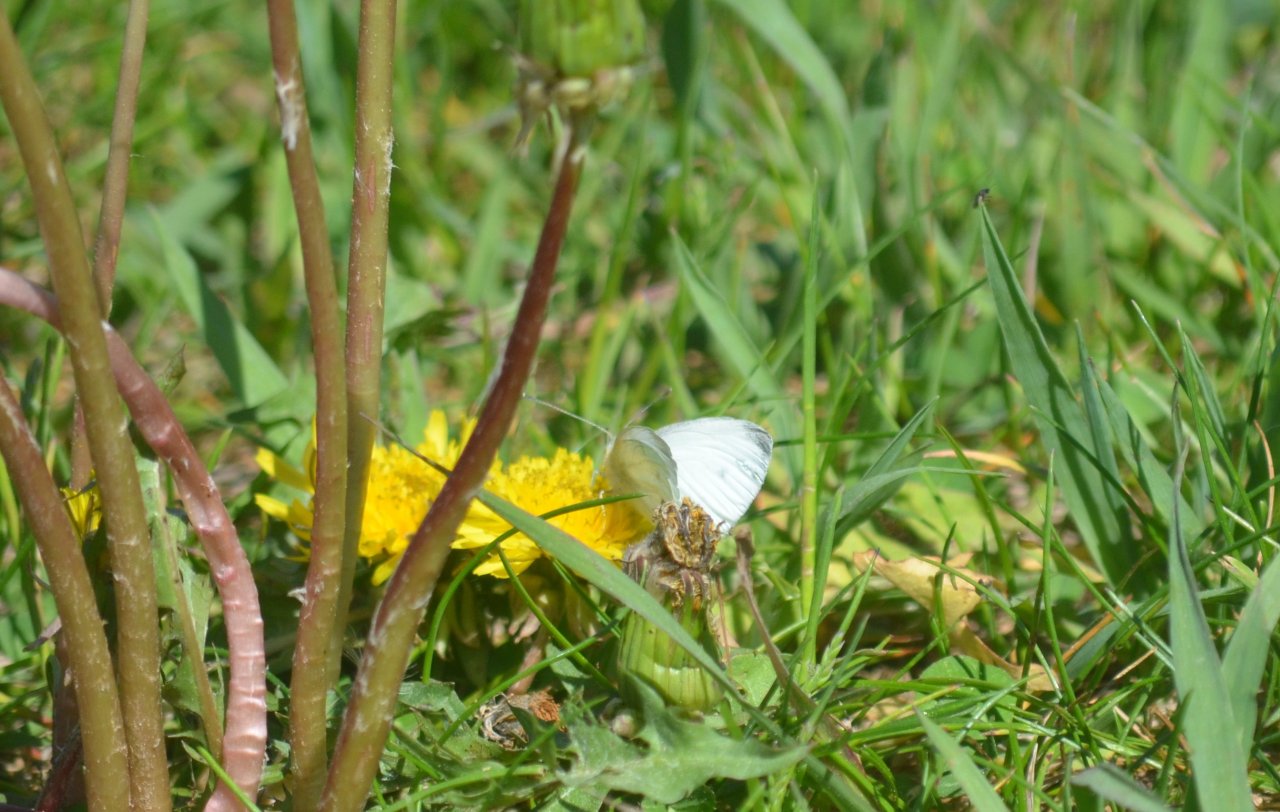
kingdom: Animalia
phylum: Arthropoda
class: Insecta
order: Lepidoptera
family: Pieridae
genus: Pieris
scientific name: Pieris rapae
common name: Cabbage White
